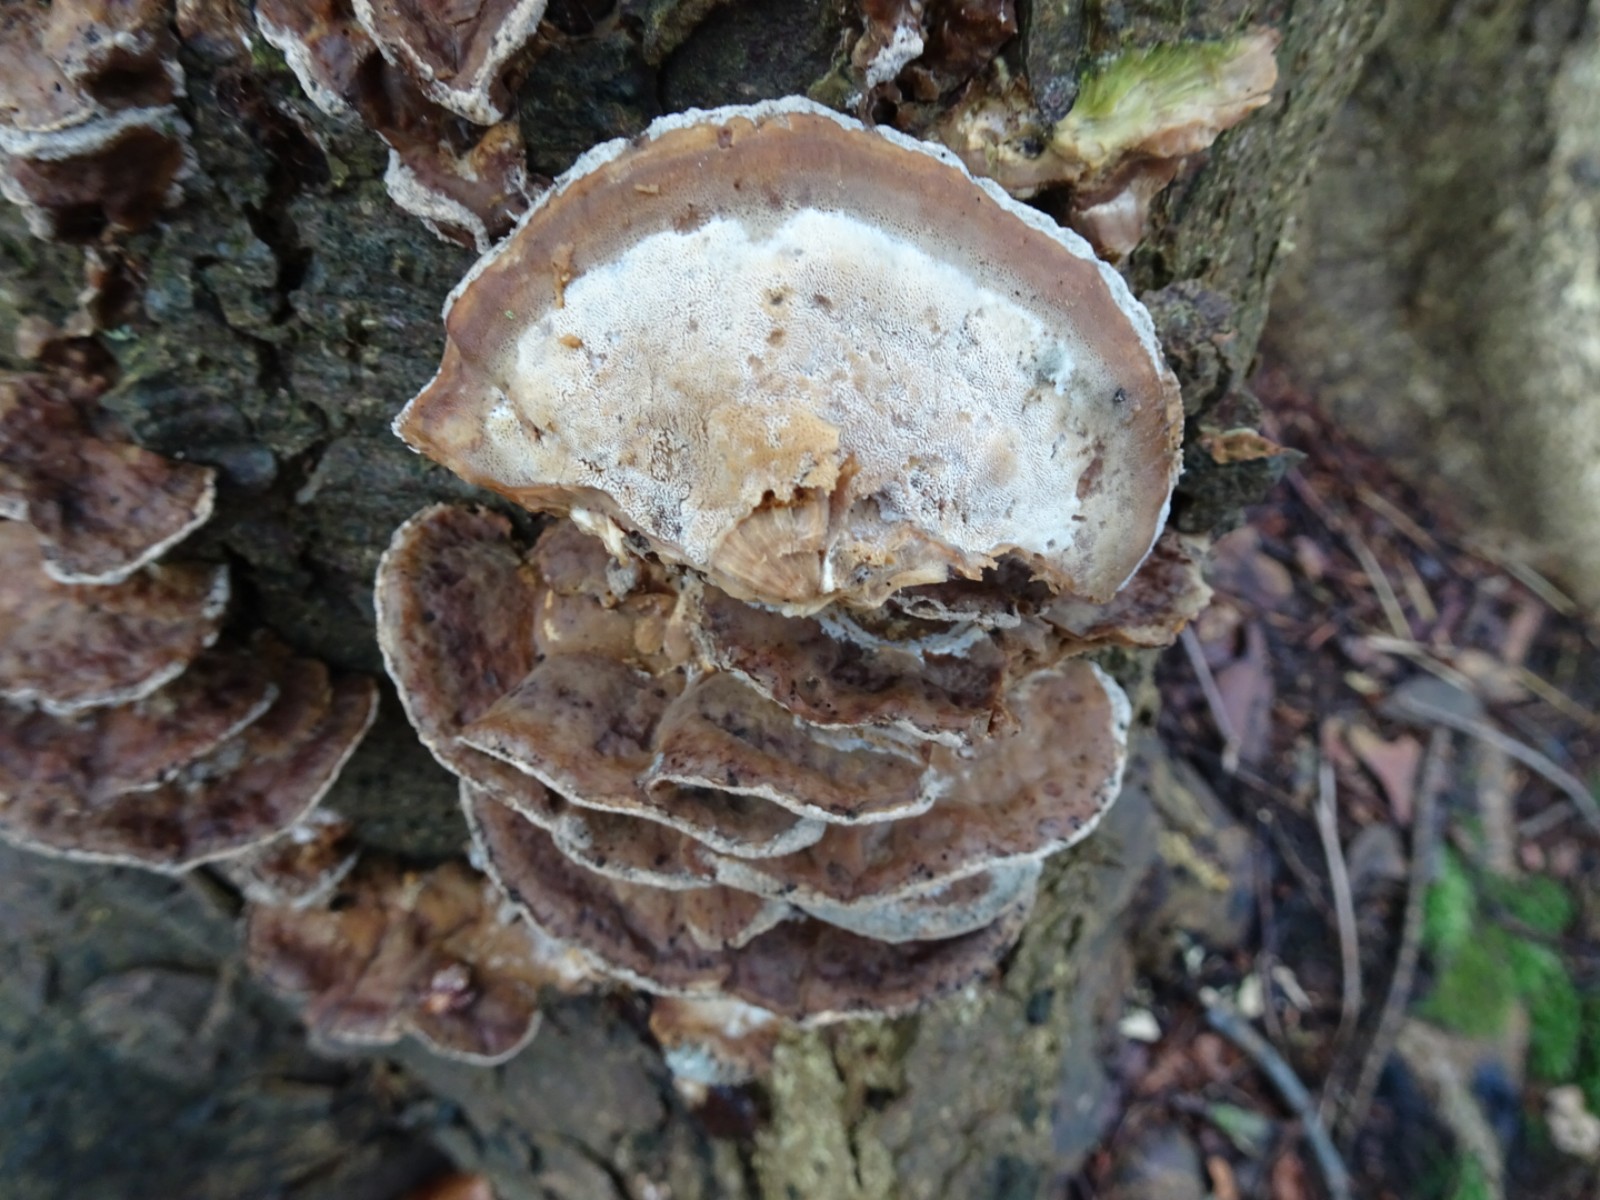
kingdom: Fungi
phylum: Basidiomycota
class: Agaricomycetes
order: Polyporales
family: Phanerochaetaceae
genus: Bjerkandera
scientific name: Bjerkandera fumosa
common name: grågul sodporesvamp
